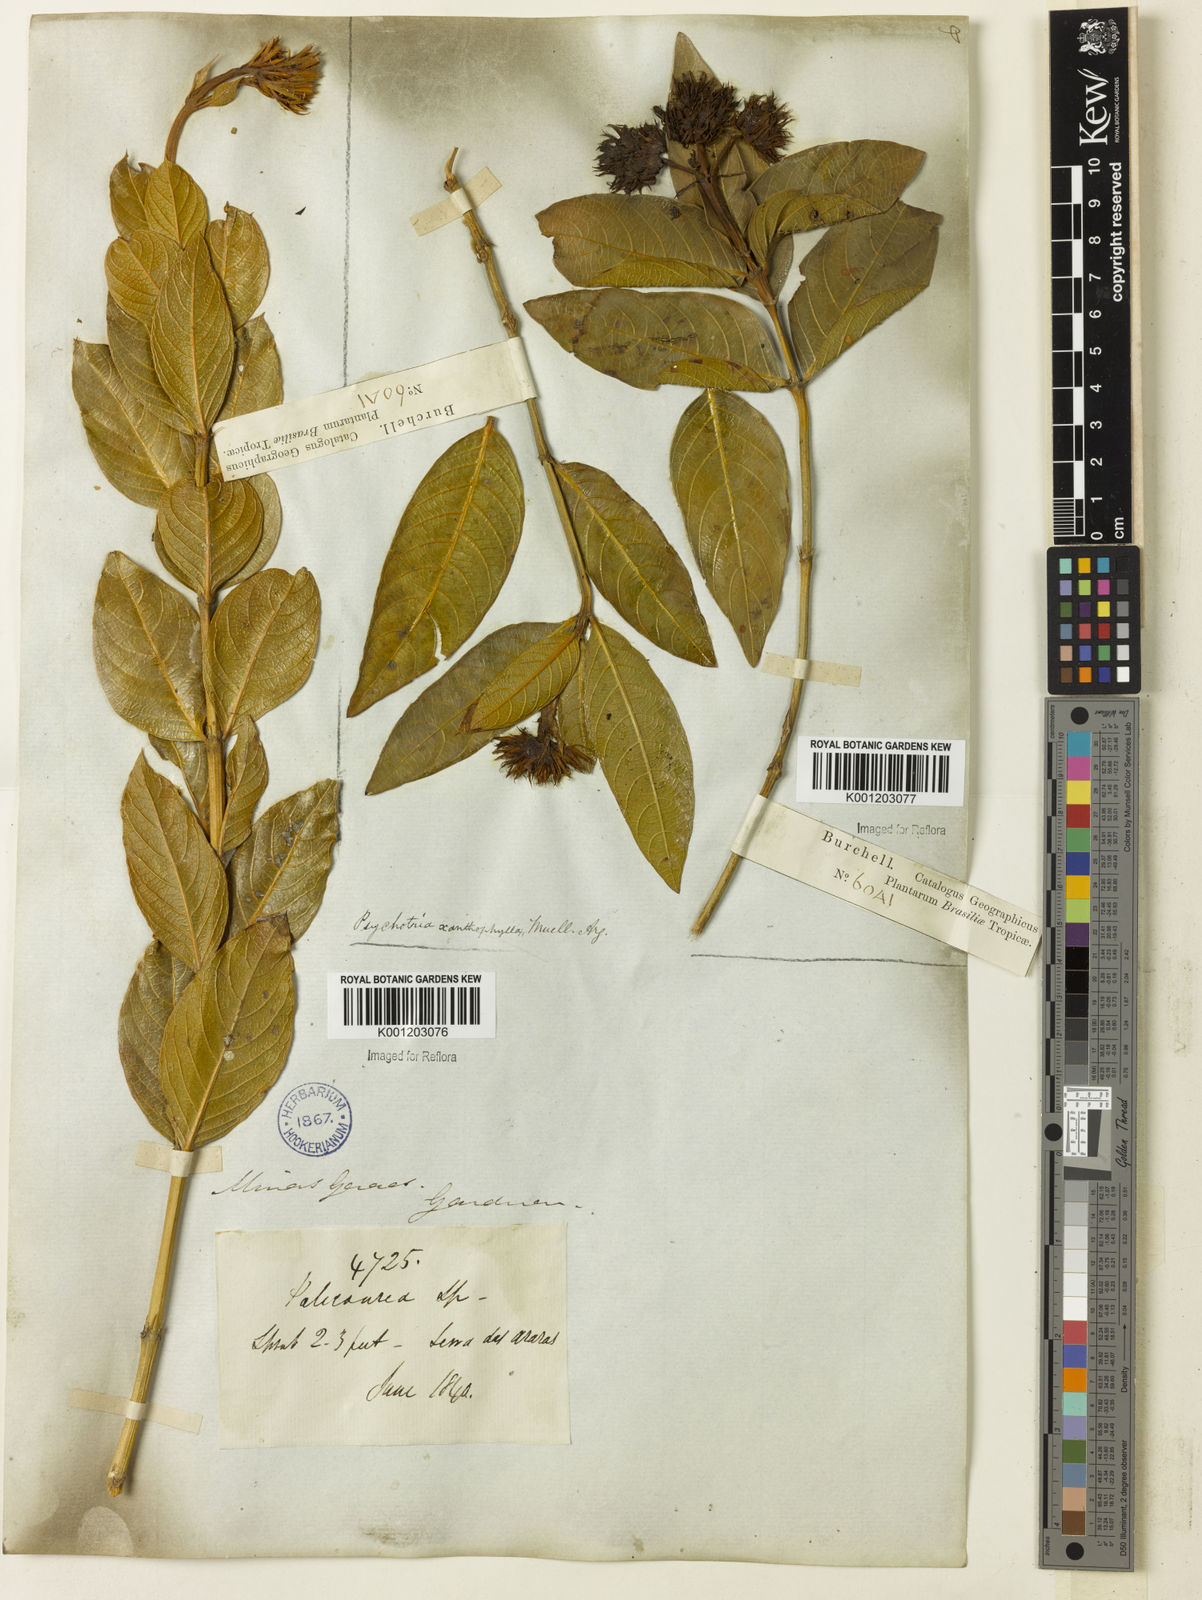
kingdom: Plantae
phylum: Tracheophyta
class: Magnoliopsida
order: Gentianales
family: Rubiaceae
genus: Palicourea
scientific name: Palicourea coriacea
